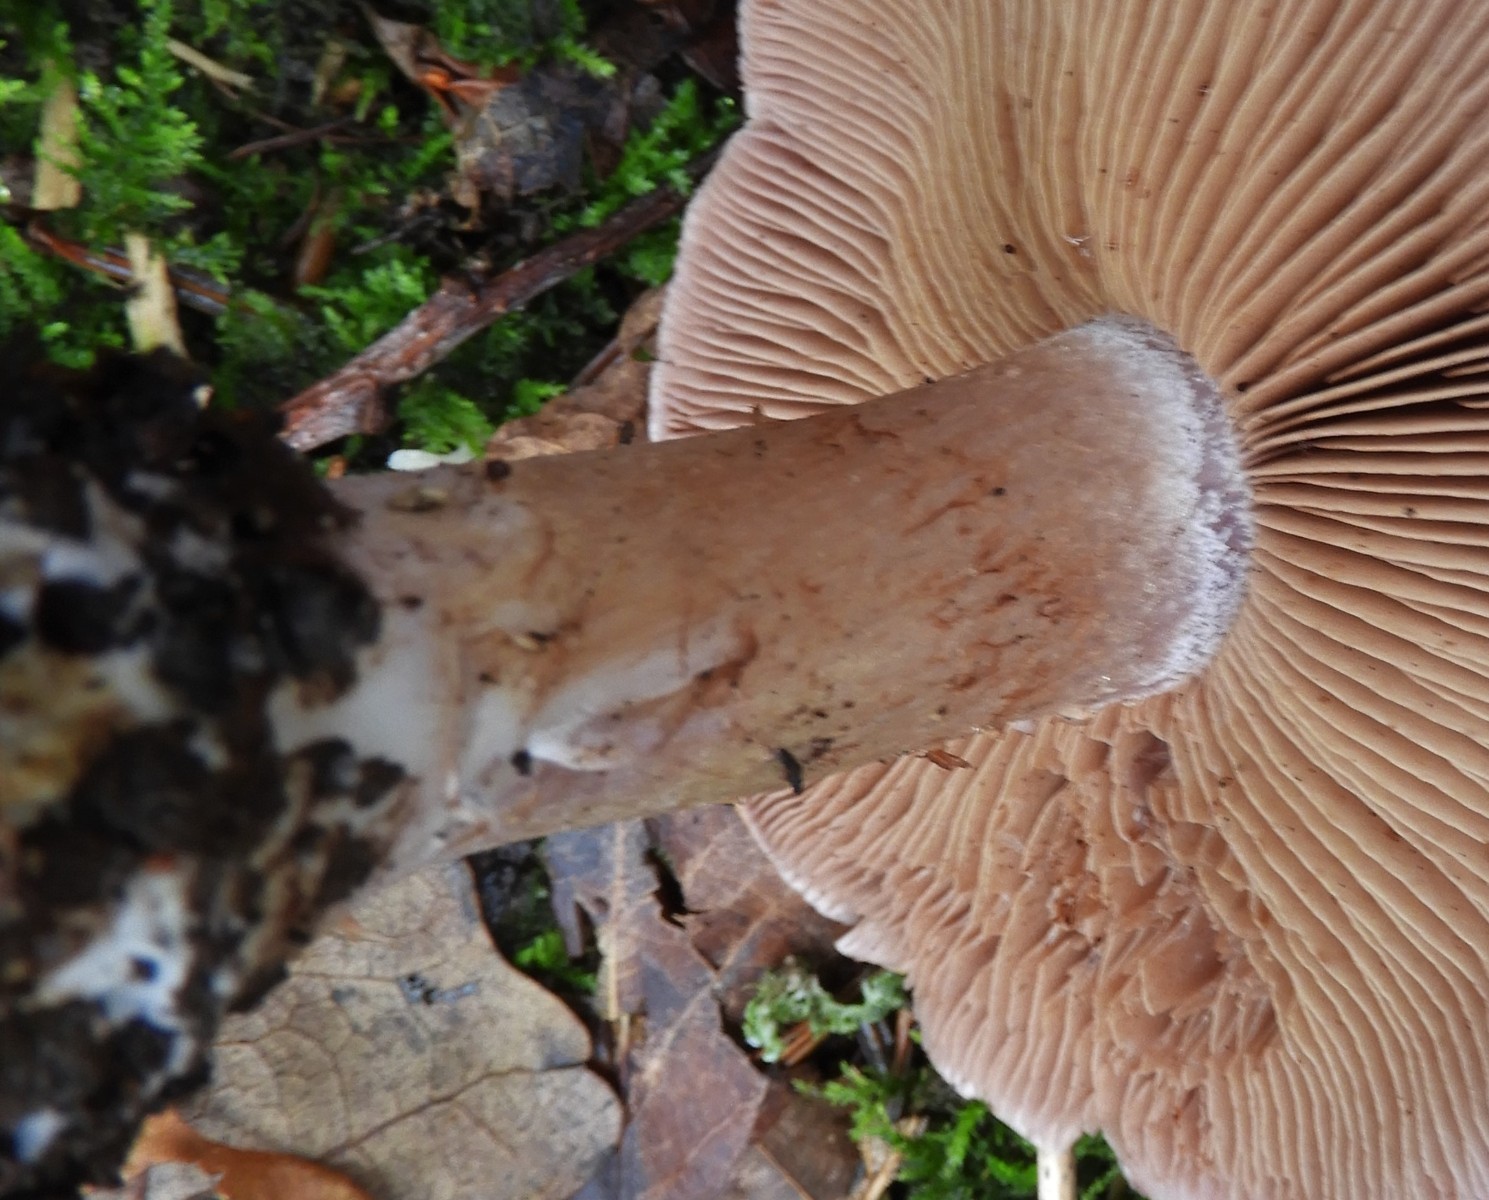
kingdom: Fungi
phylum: Basidiomycota
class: Agaricomycetes
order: Agaricales
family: Cortinariaceae
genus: Cortinarius
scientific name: Cortinarius largus
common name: violetrandet slørhat
